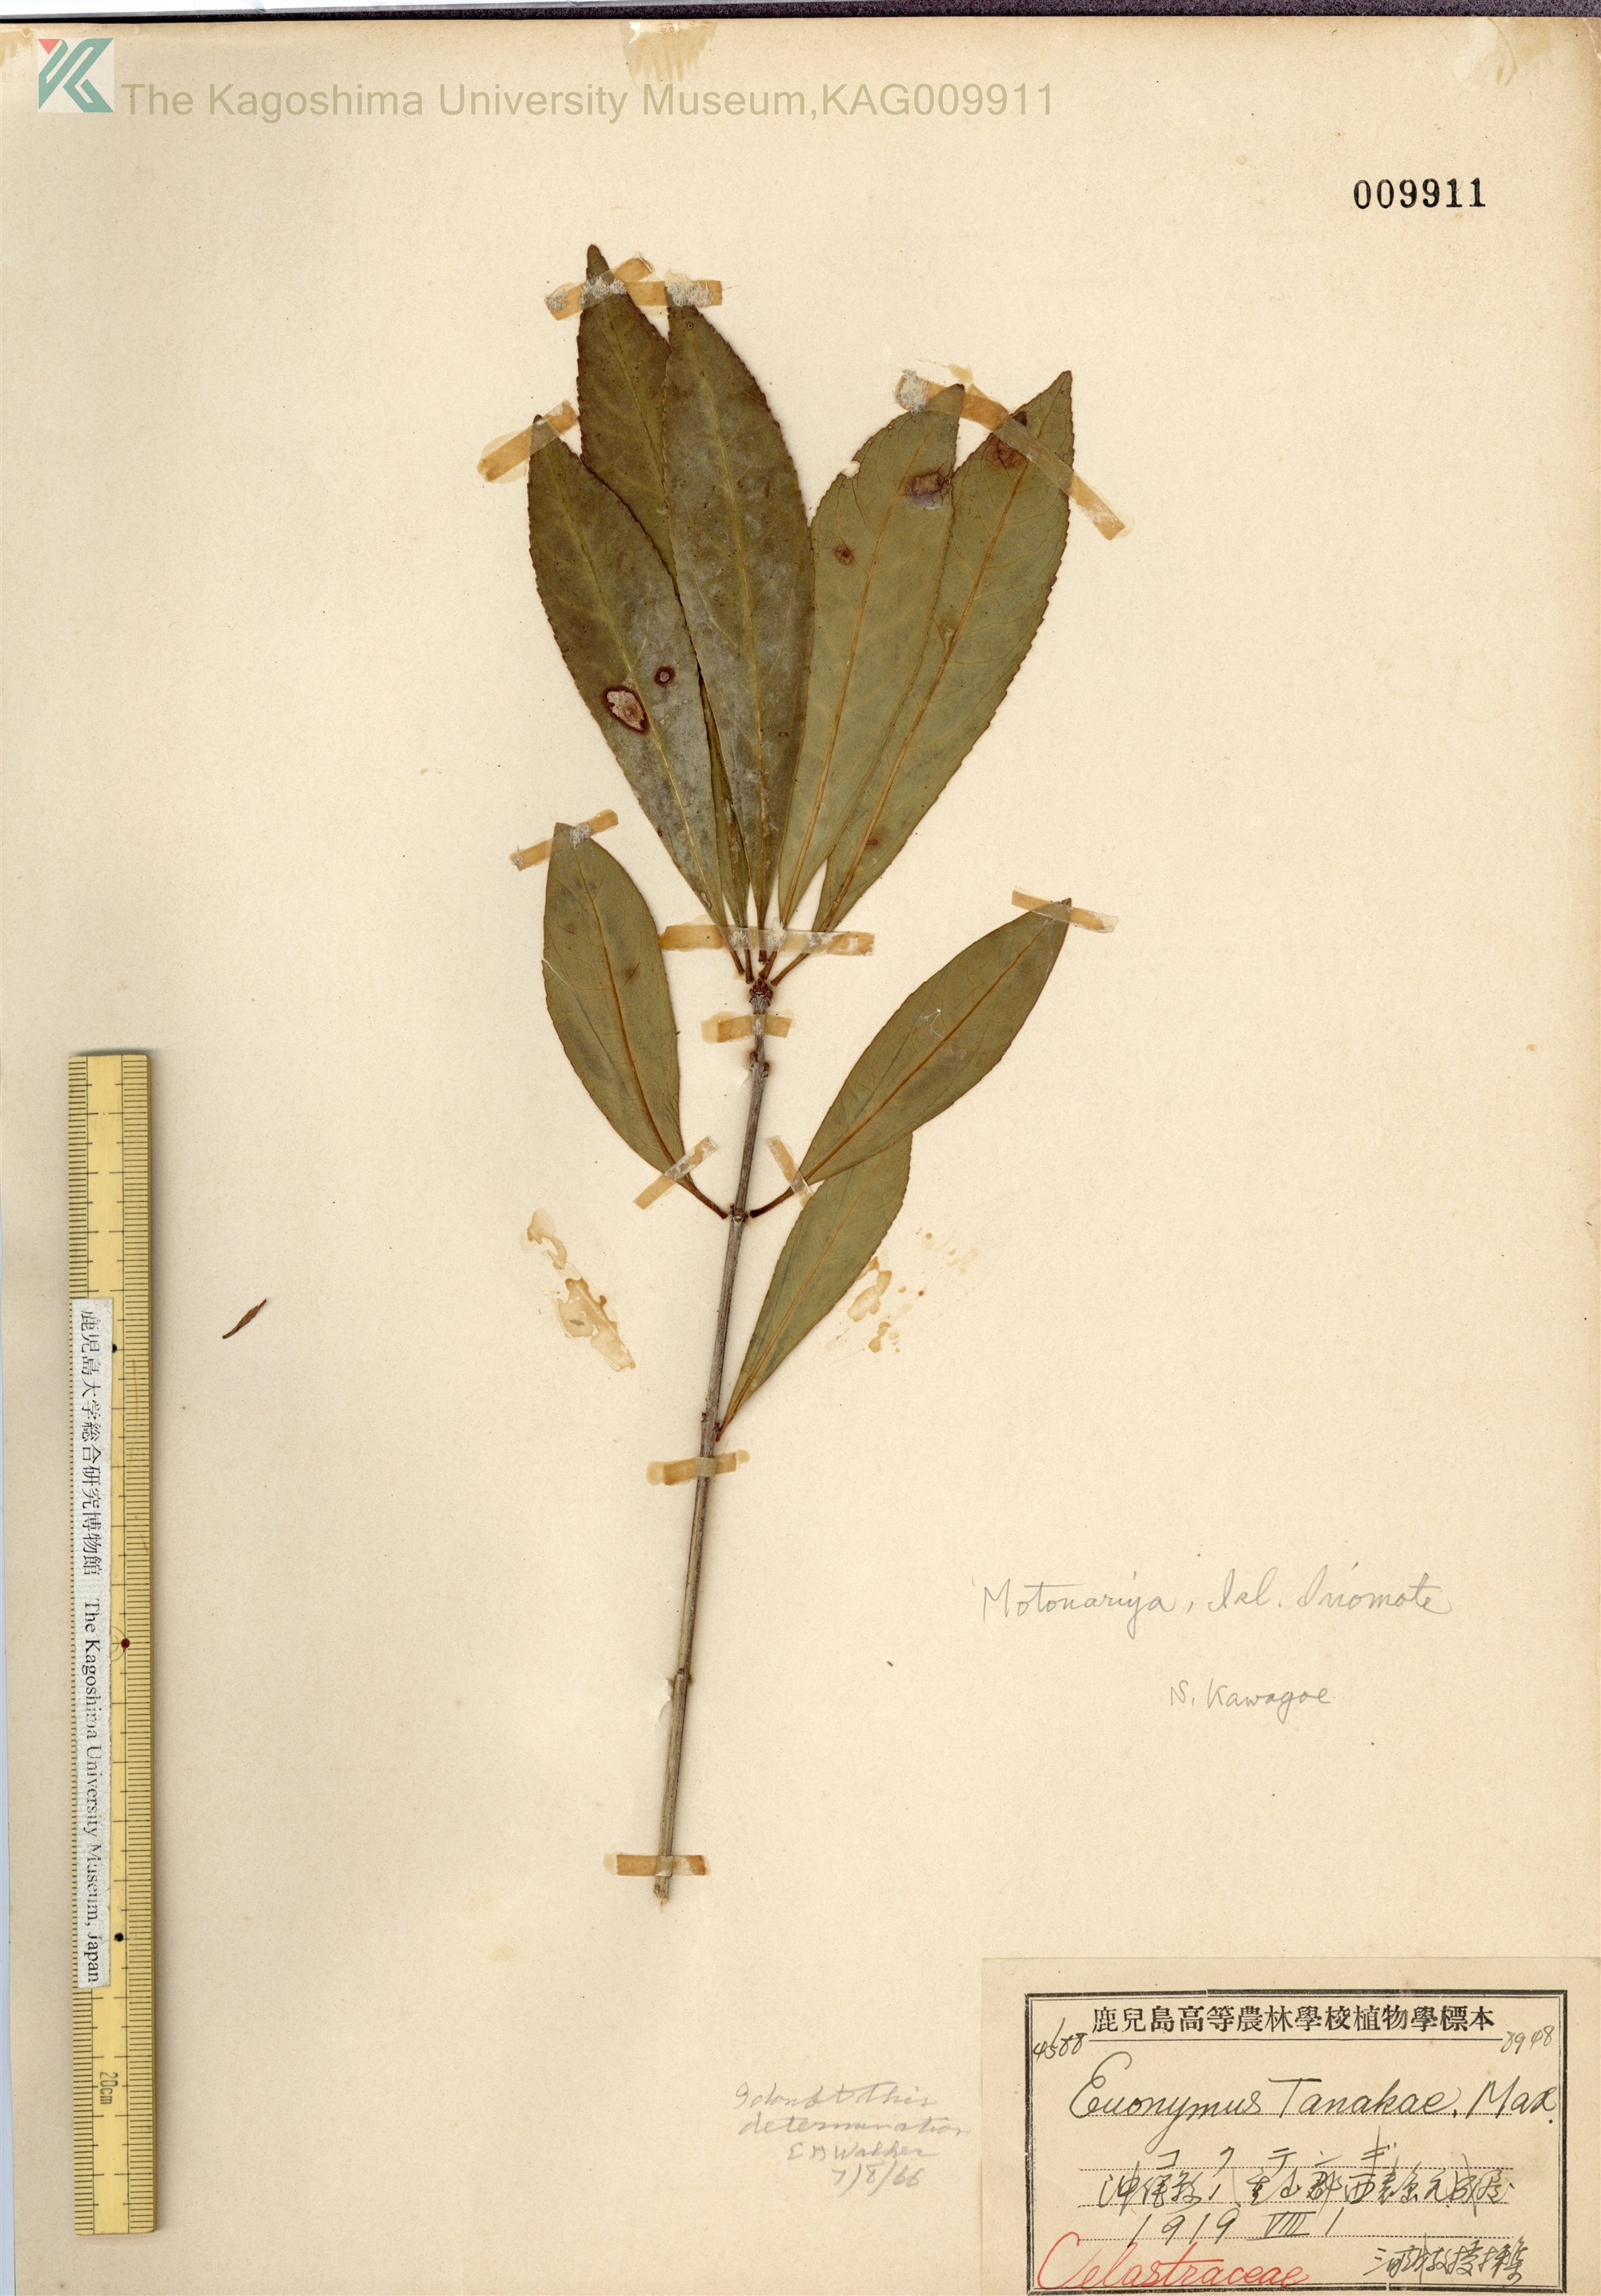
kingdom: Plantae
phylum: Tracheophyta
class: Magnoliopsida
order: Celastrales
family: Celastraceae
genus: Euonymus
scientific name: Euonymus carnosus
